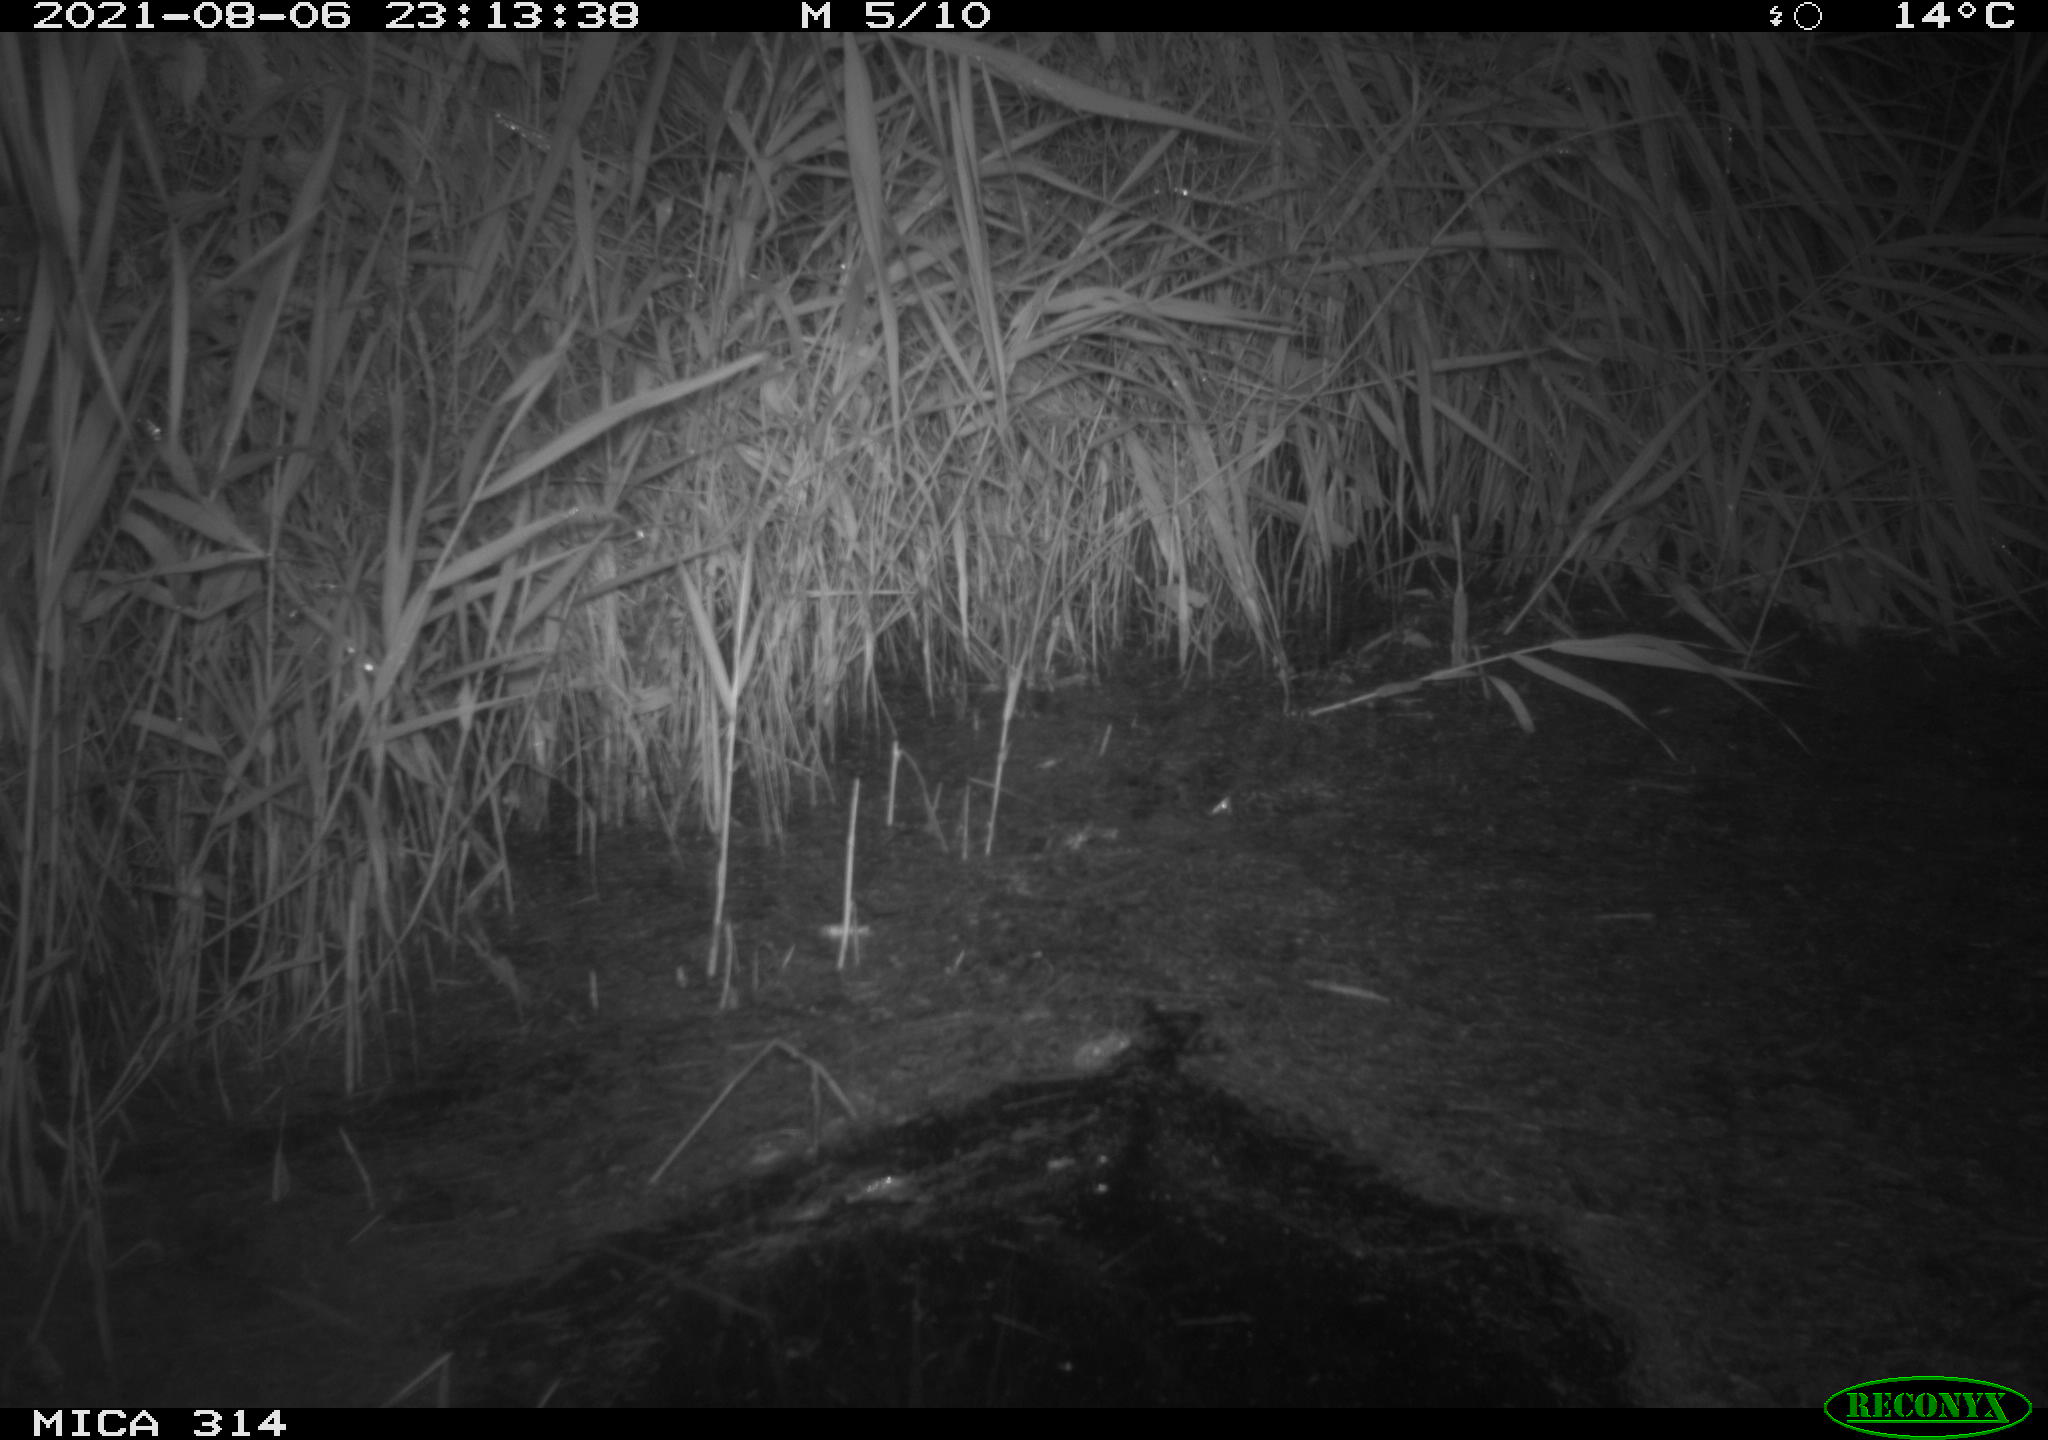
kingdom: Animalia
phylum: Chordata
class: Mammalia
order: Rodentia
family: Muridae
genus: Rattus
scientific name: Rattus norvegicus
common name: Brown rat
